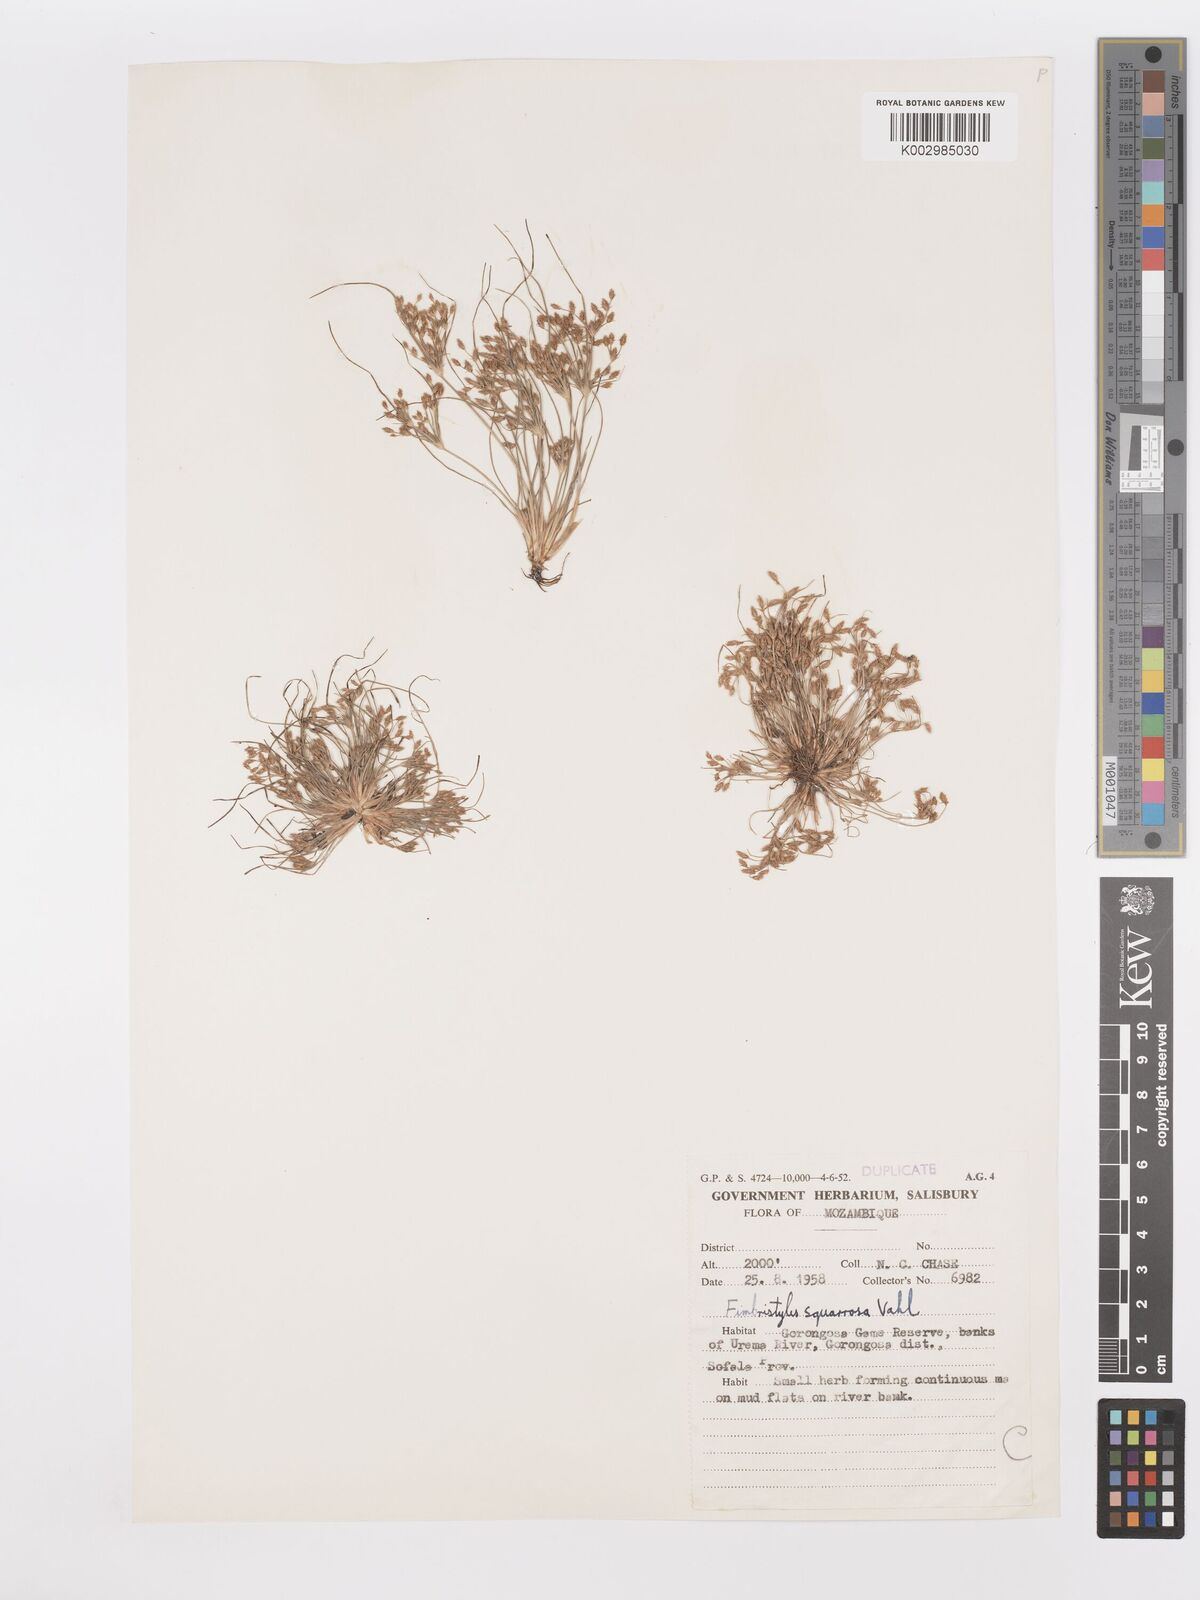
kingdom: Plantae
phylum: Tracheophyta
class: Liliopsida
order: Poales
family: Cyperaceae
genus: Fimbristylis
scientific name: Fimbristylis squarrosa
